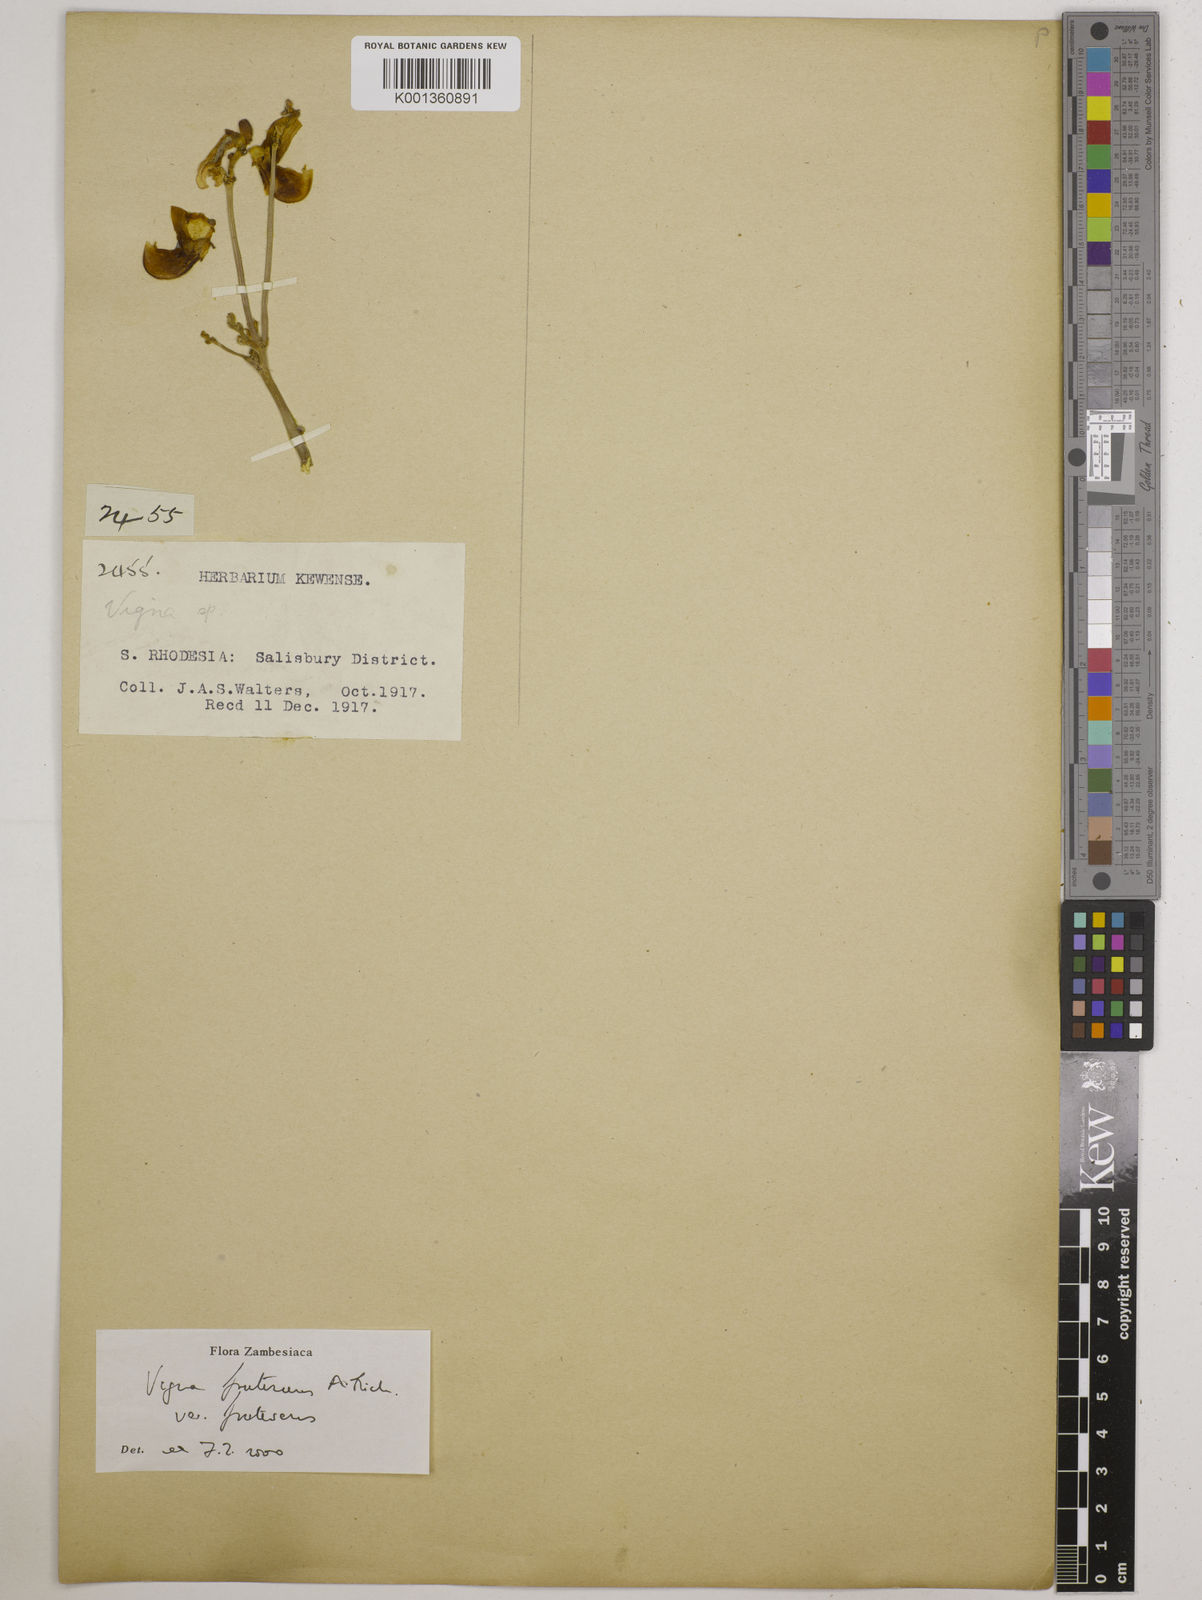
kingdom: Plantae
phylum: Tracheophyta
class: Magnoliopsida
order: Fabales
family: Fabaceae
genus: Vigna
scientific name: Vigna
